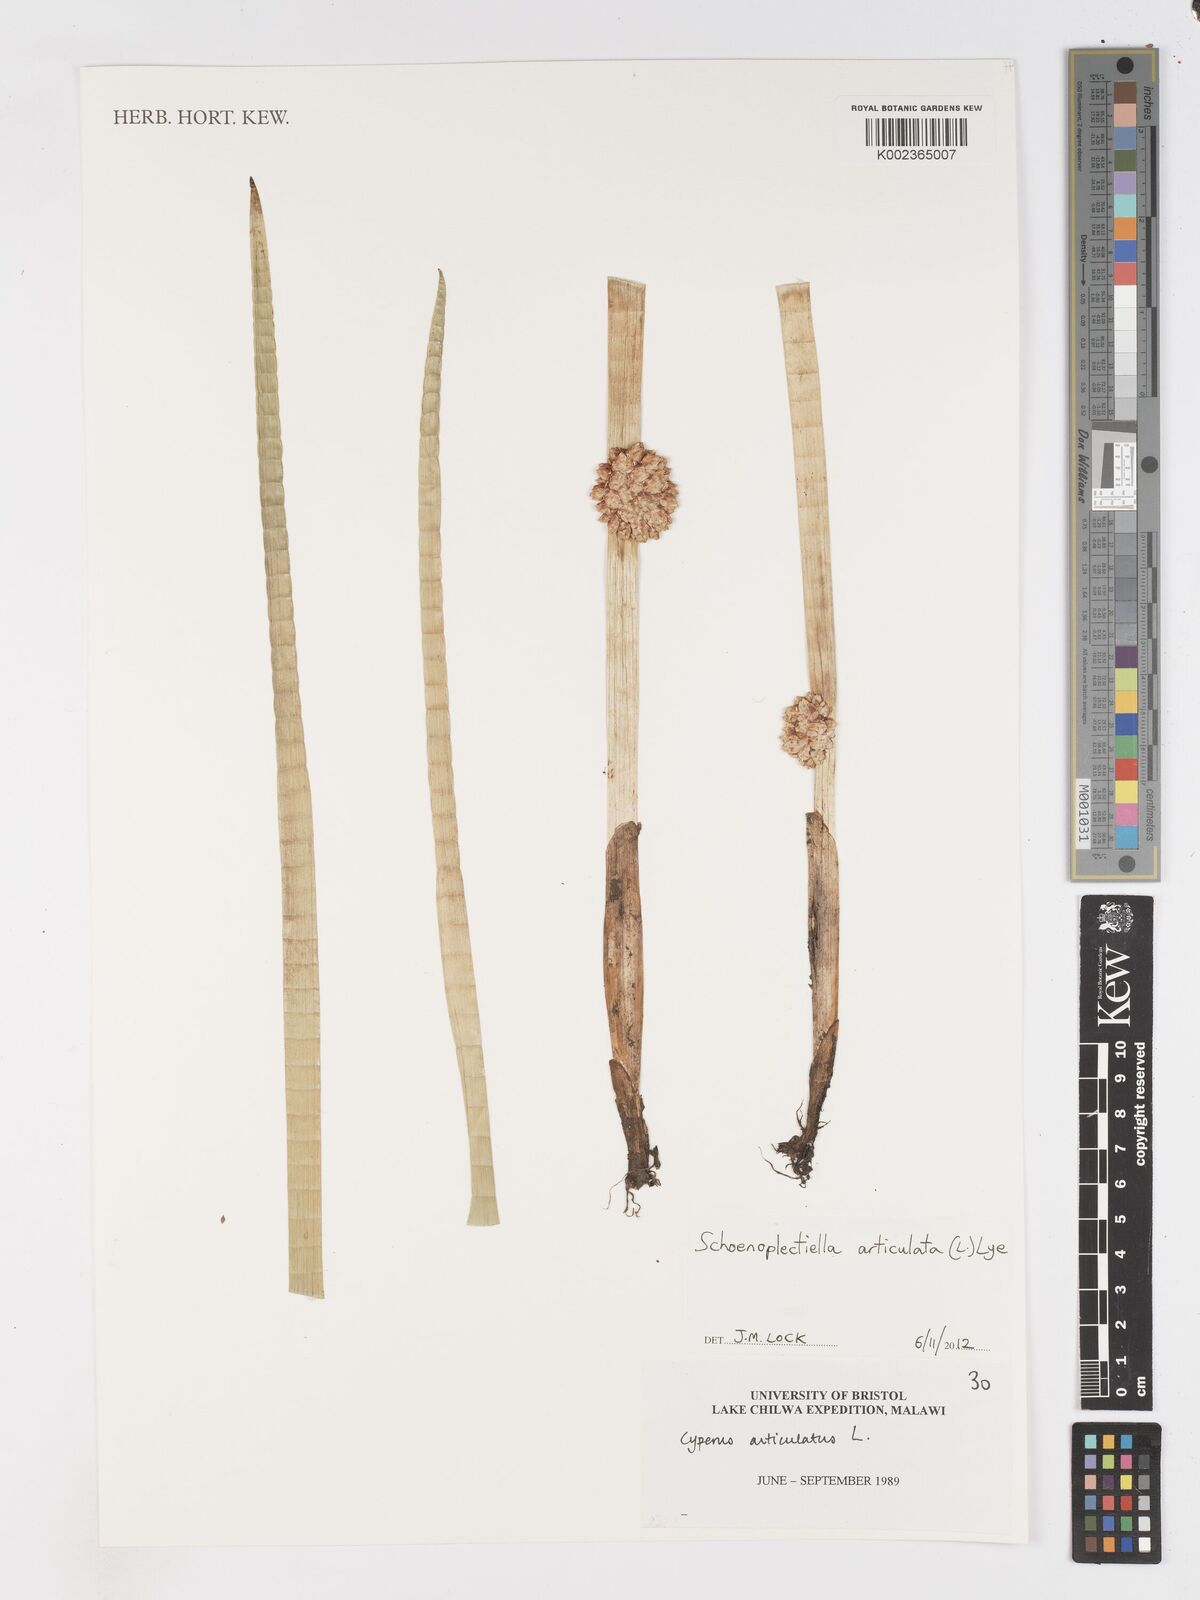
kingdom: Plantae
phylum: Tracheophyta
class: Liliopsida
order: Poales
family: Cyperaceae
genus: Schoenoplectiella
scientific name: Schoenoplectiella articulata
